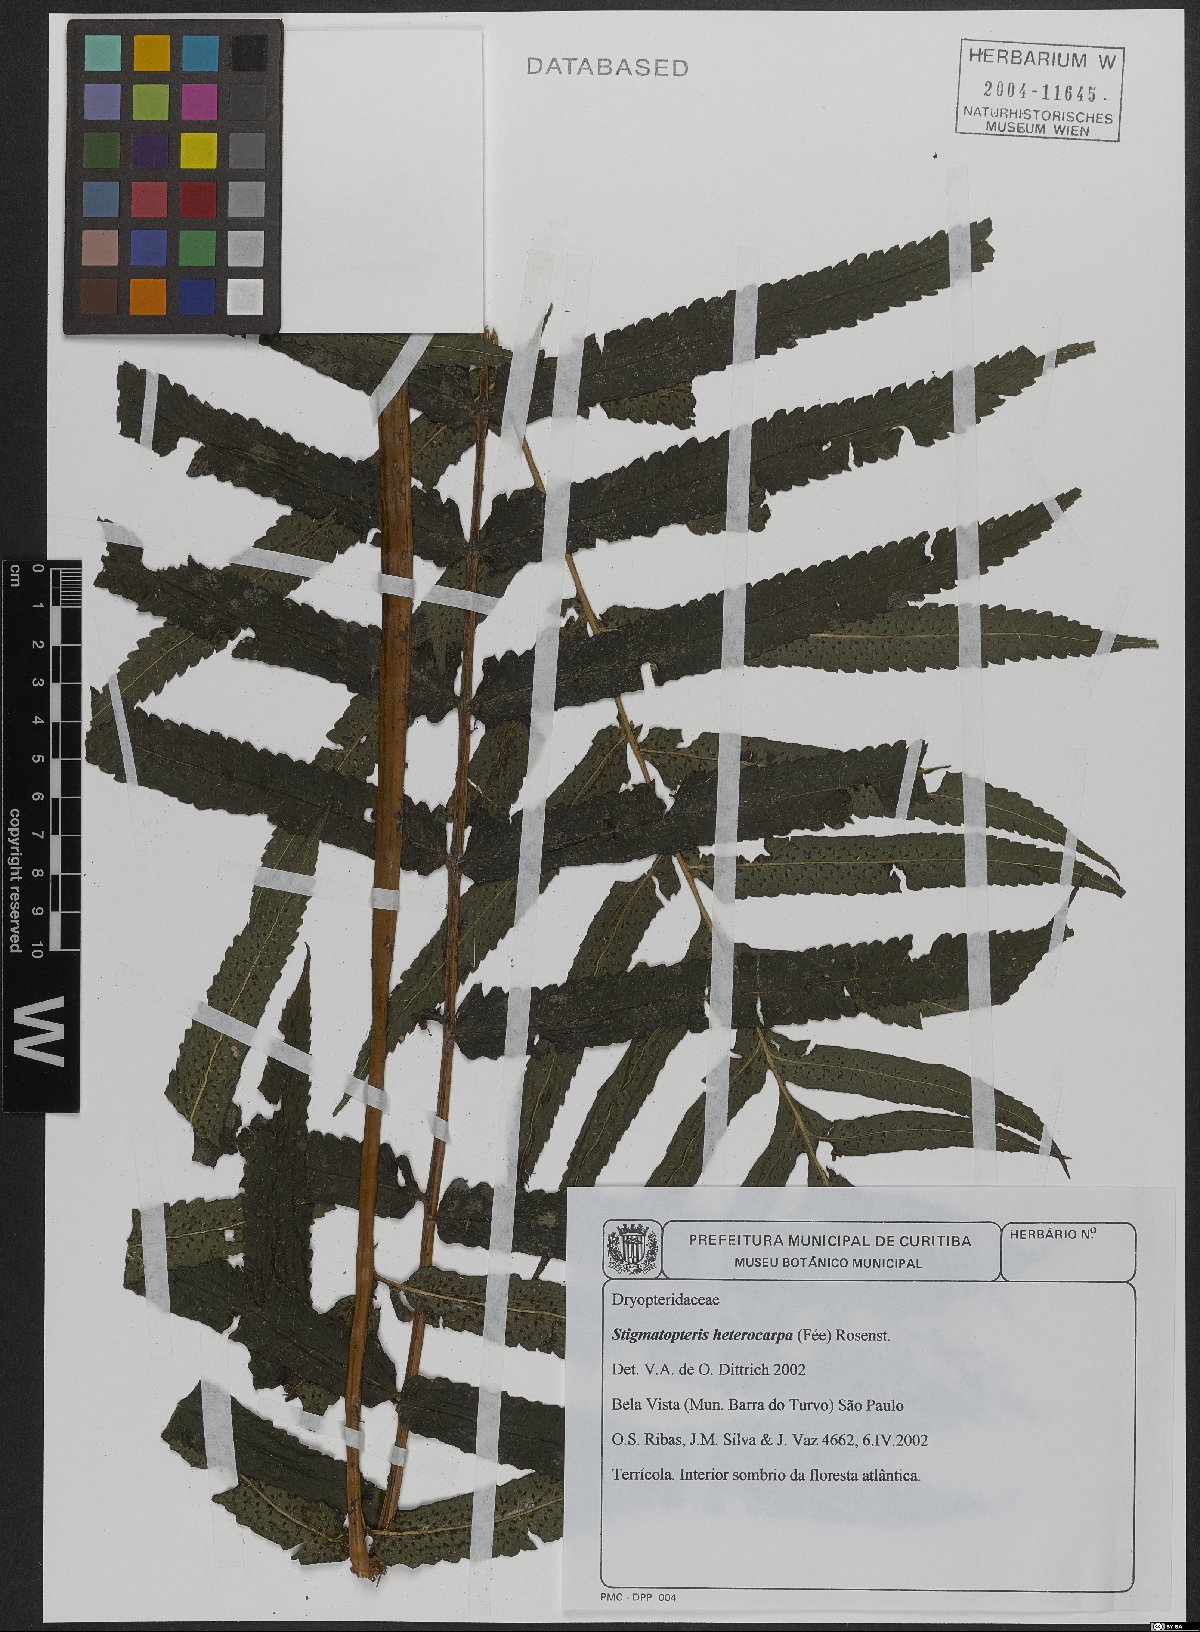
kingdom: Plantae
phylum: Tracheophyta
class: Polypodiopsida
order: Polypodiales
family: Dryopteridaceae
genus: Stigmatopteris
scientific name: Stigmatopteris heterocarpa
